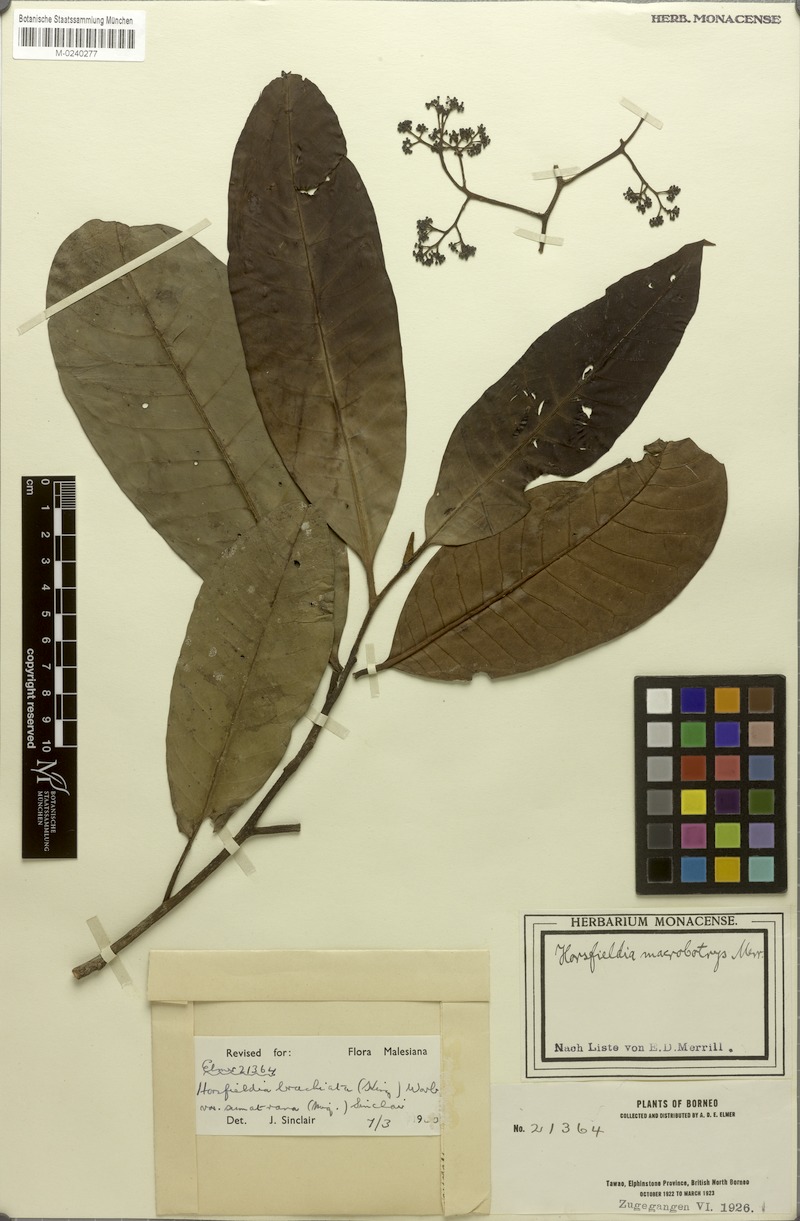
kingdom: Plantae
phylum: Tracheophyta
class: Magnoliopsida
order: Magnoliales
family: Myristicaceae
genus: Horsfieldia
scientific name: Horsfieldia brachiata
